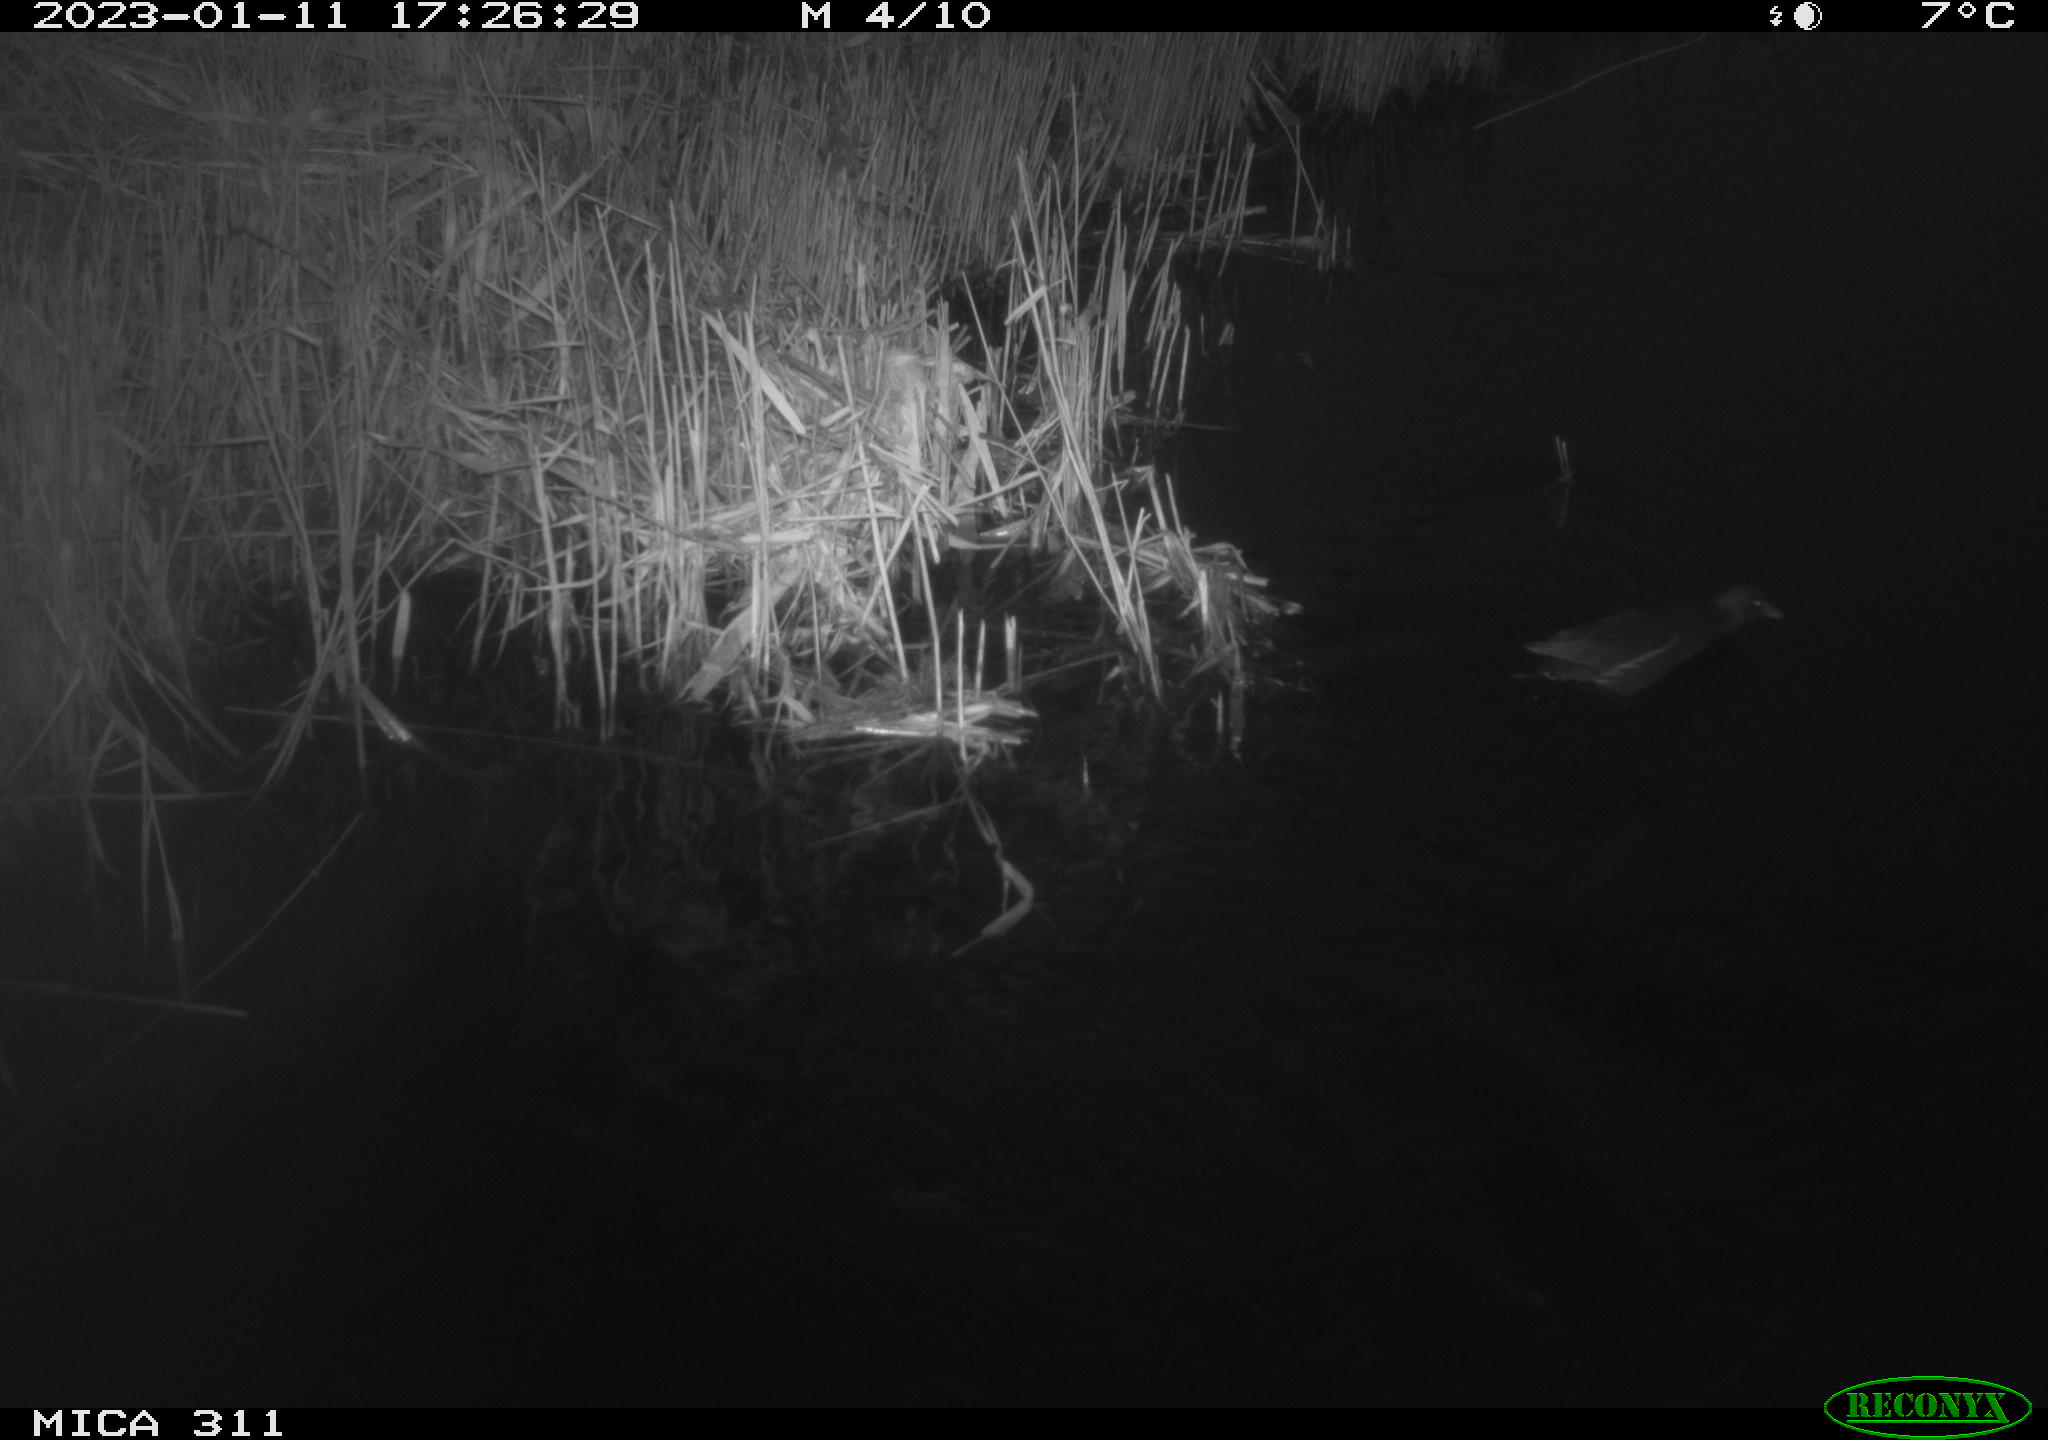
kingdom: Animalia
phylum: Chordata
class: Aves
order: Gruiformes
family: Rallidae
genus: Gallinula
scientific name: Gallinula chloropus
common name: Common moorhen
